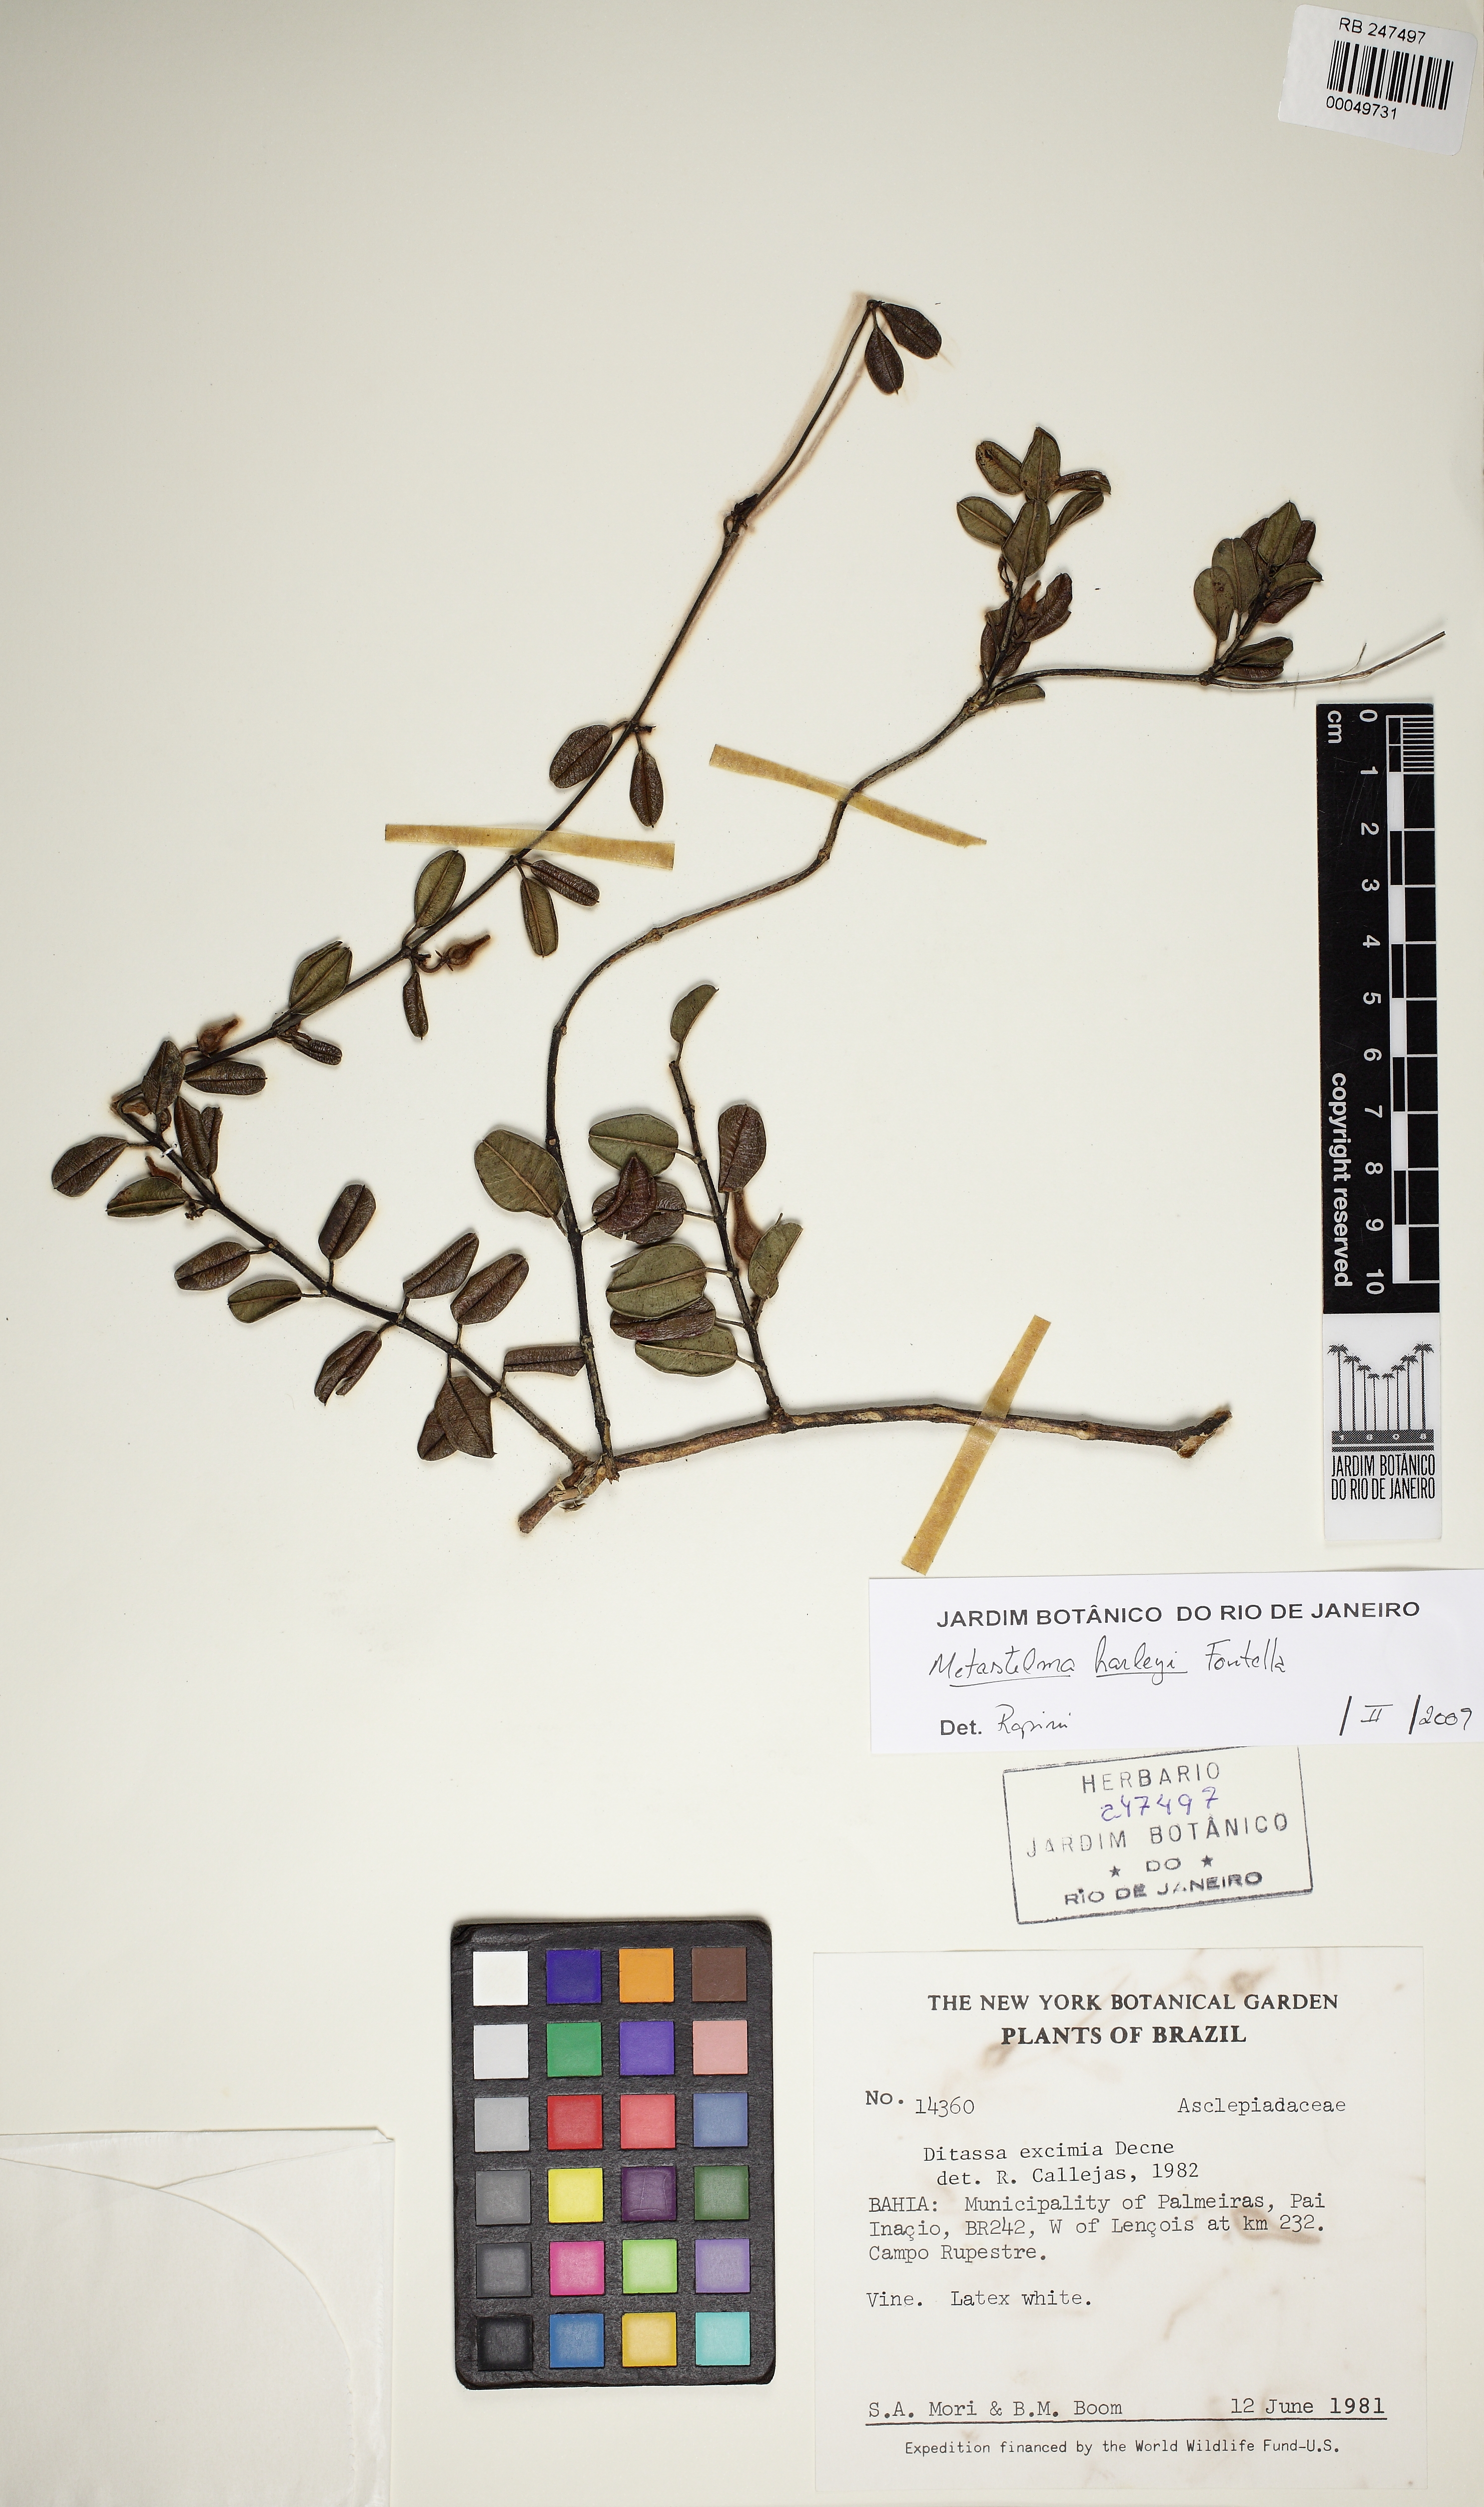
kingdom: Plantae
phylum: Tracheophyta
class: Magnoliopsida
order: Gentianales
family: Apocynaceae
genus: Metastelma
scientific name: Metastelma harleyi
